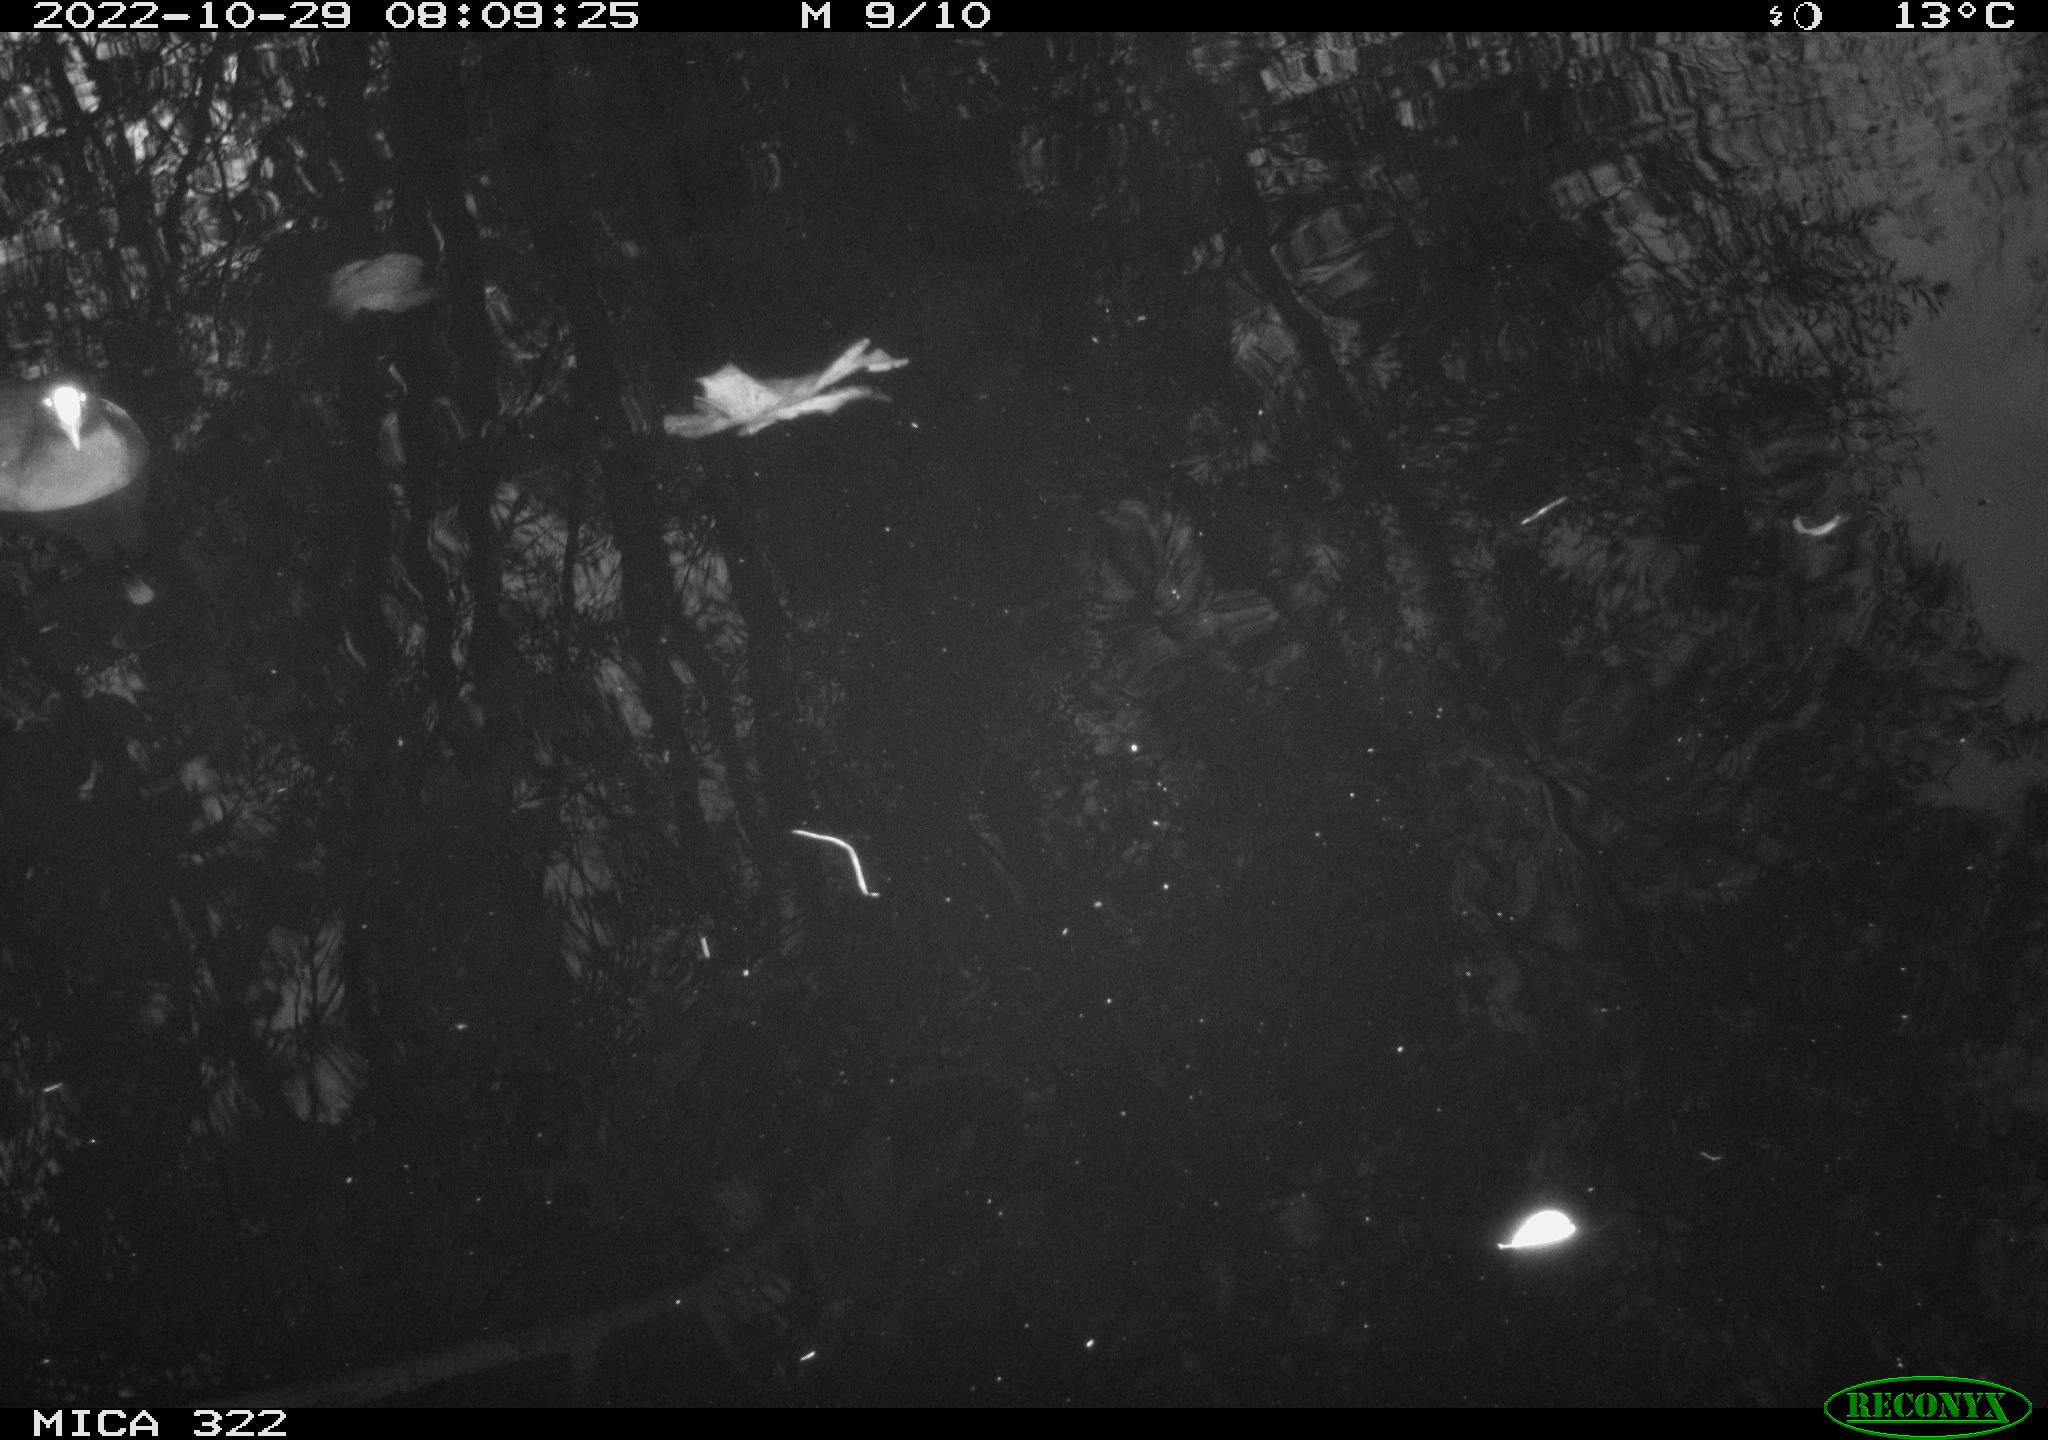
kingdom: Animalia
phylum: Chordata
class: Aves
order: Anseriformes
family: Anatidae
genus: Anas
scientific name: Anas
